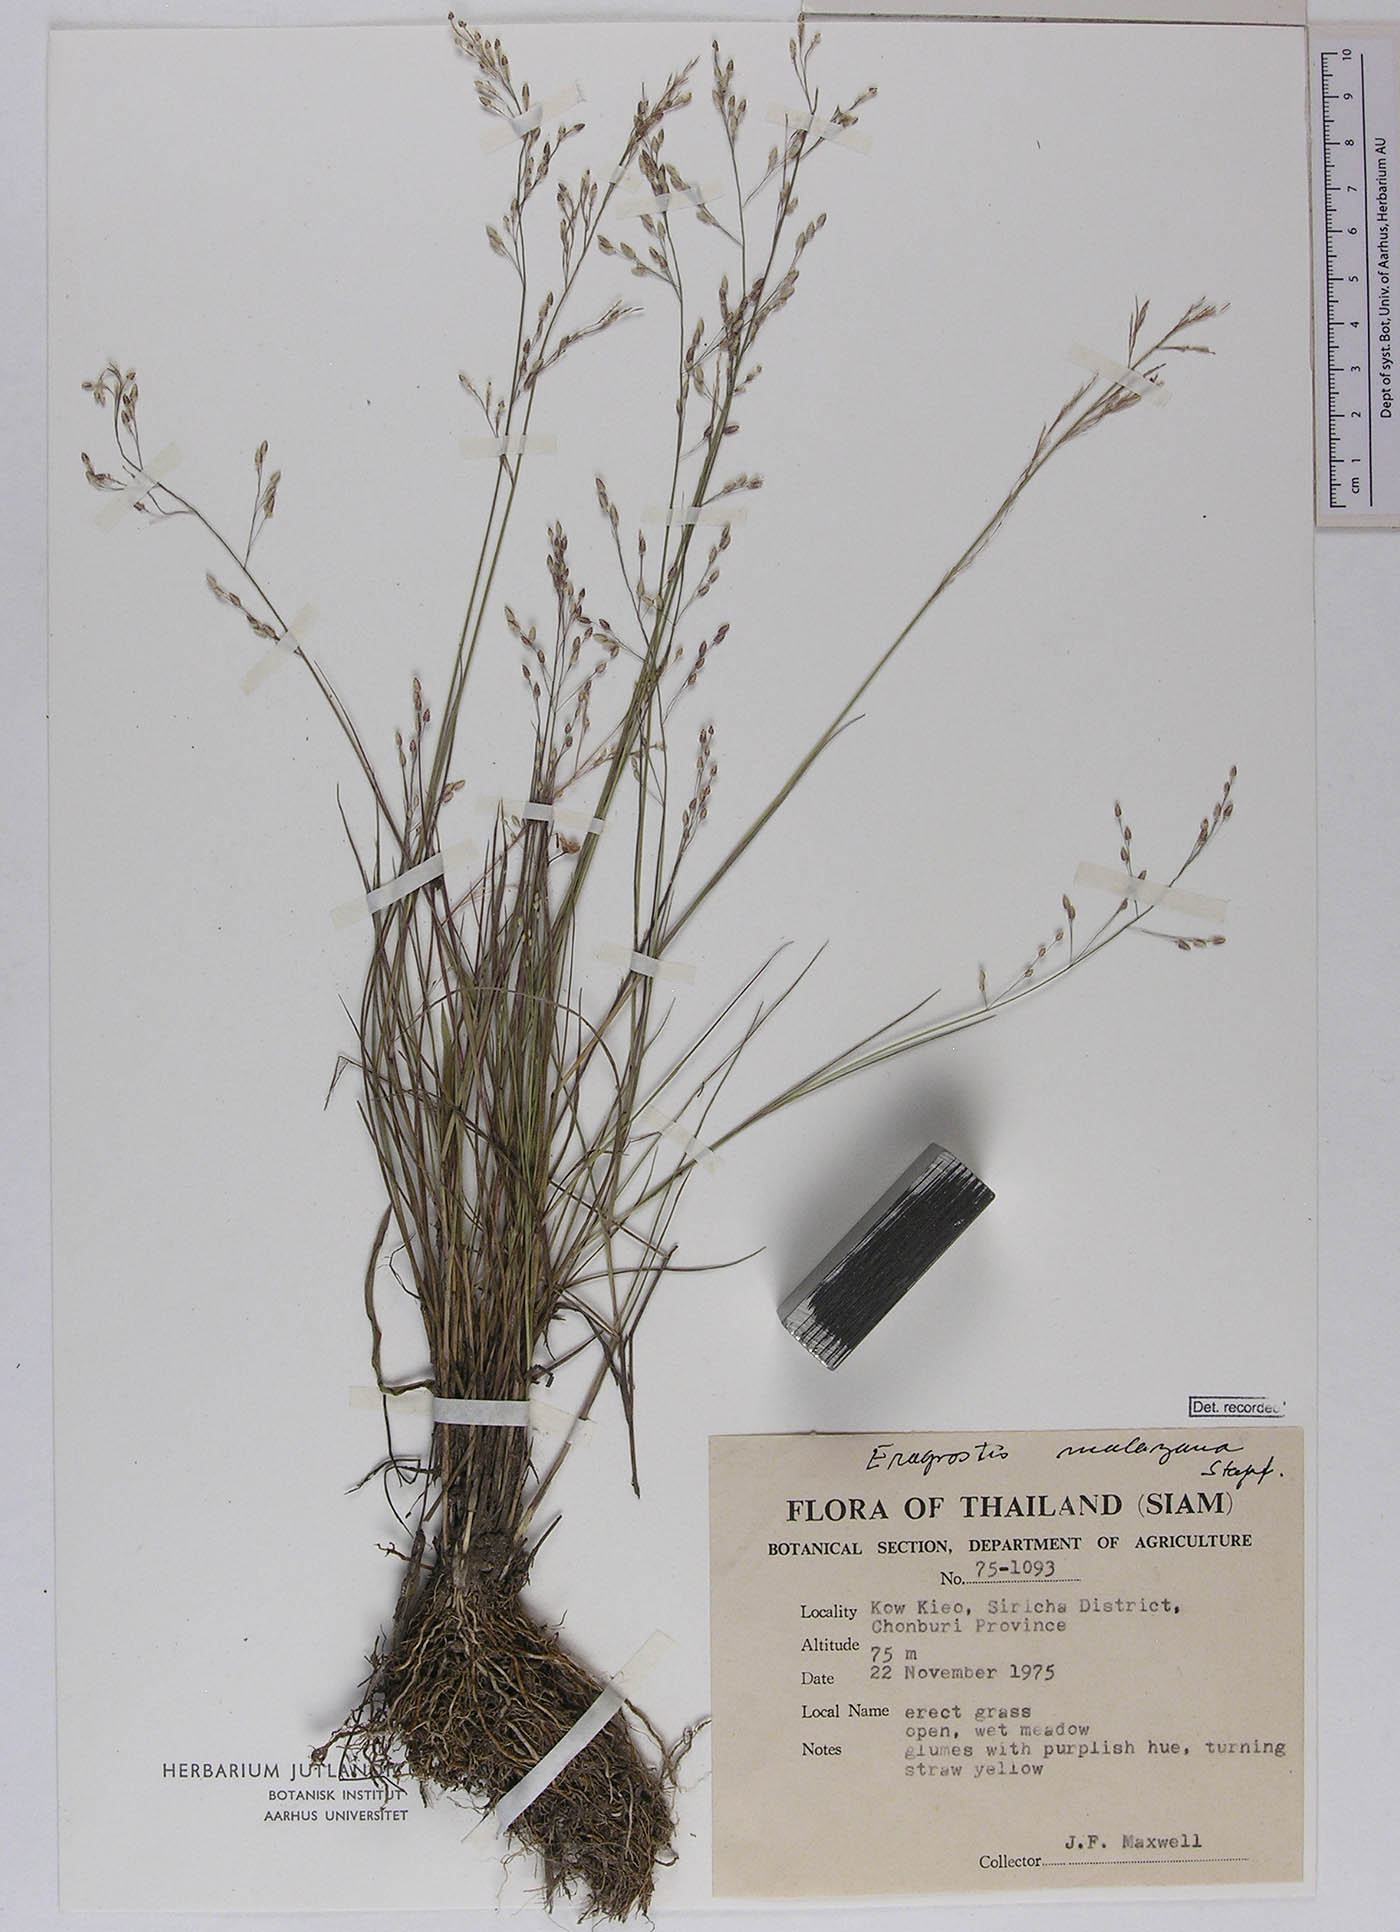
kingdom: Plantae
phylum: Tracheophyta
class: Liliopsida
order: Poales
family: Poaceae
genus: Eragrostis
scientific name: Eragrostis montana
